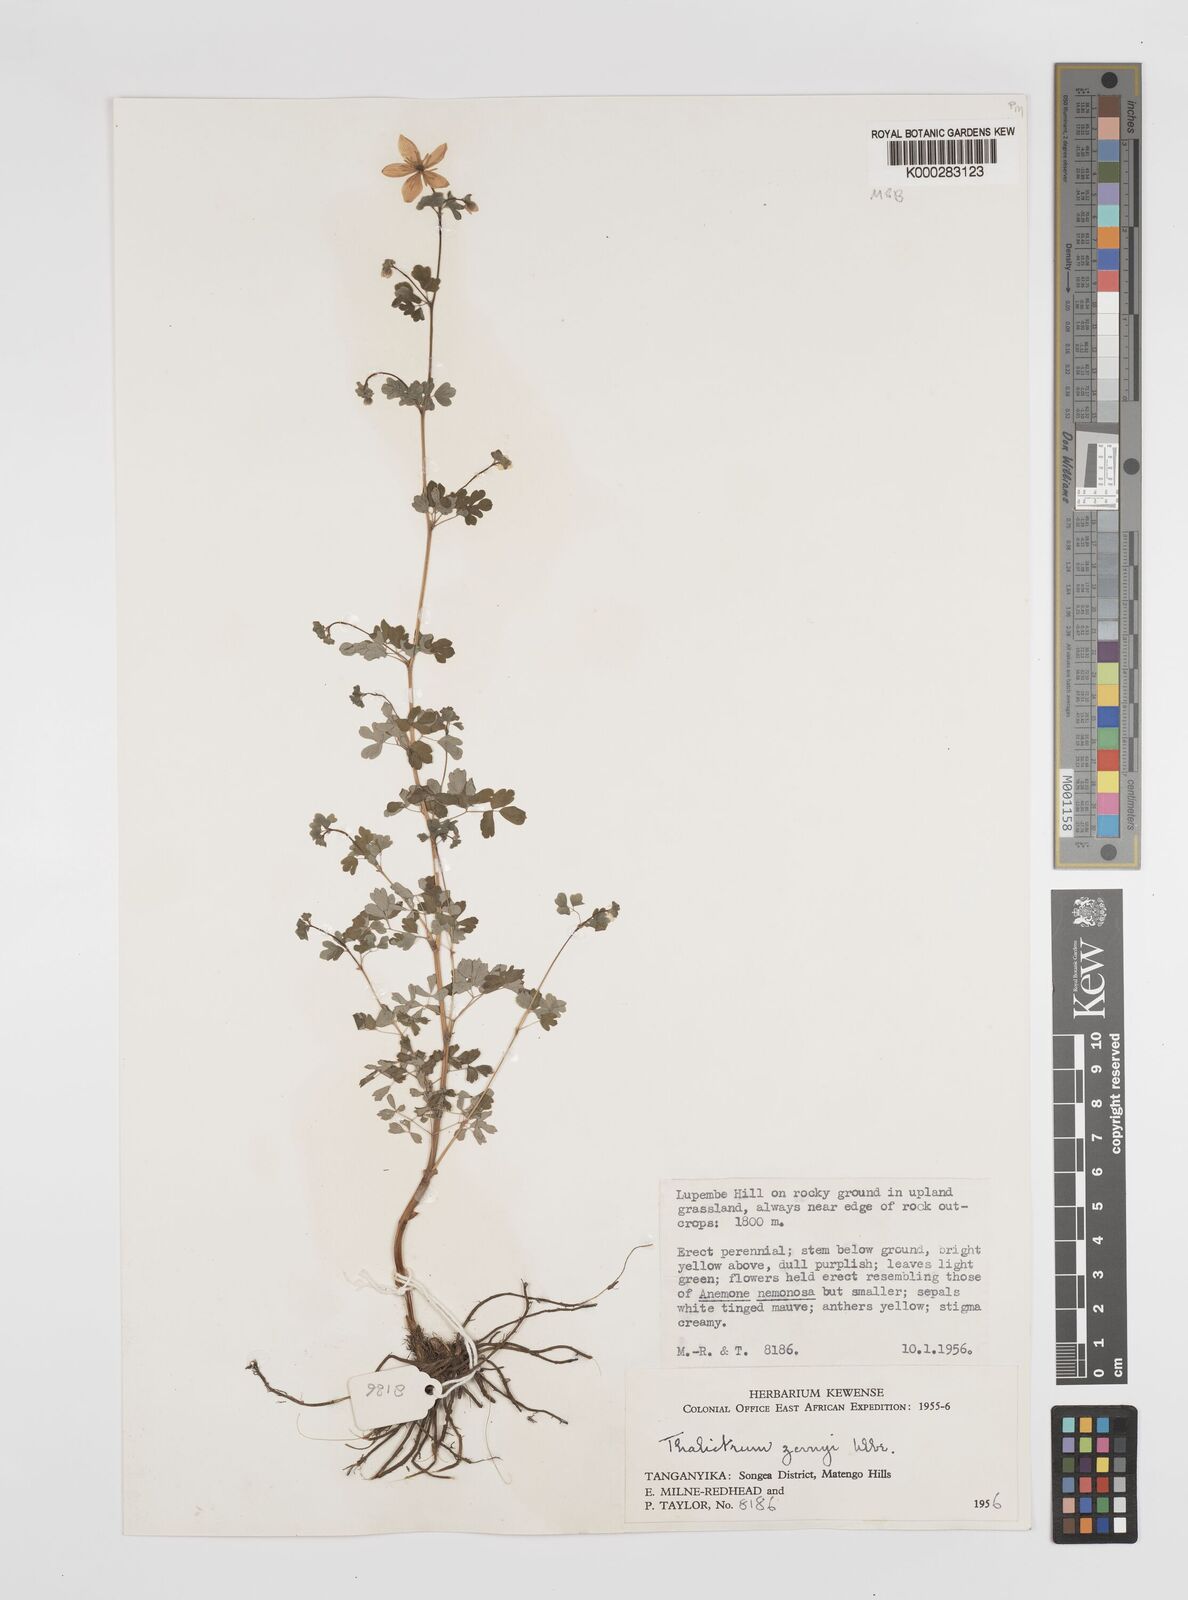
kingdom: Plantae
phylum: Tracheophyta
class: Magnoliopsida
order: Ranunculales
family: Ranunculaceae
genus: Thalictrum
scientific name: Thalictrum zernyi
